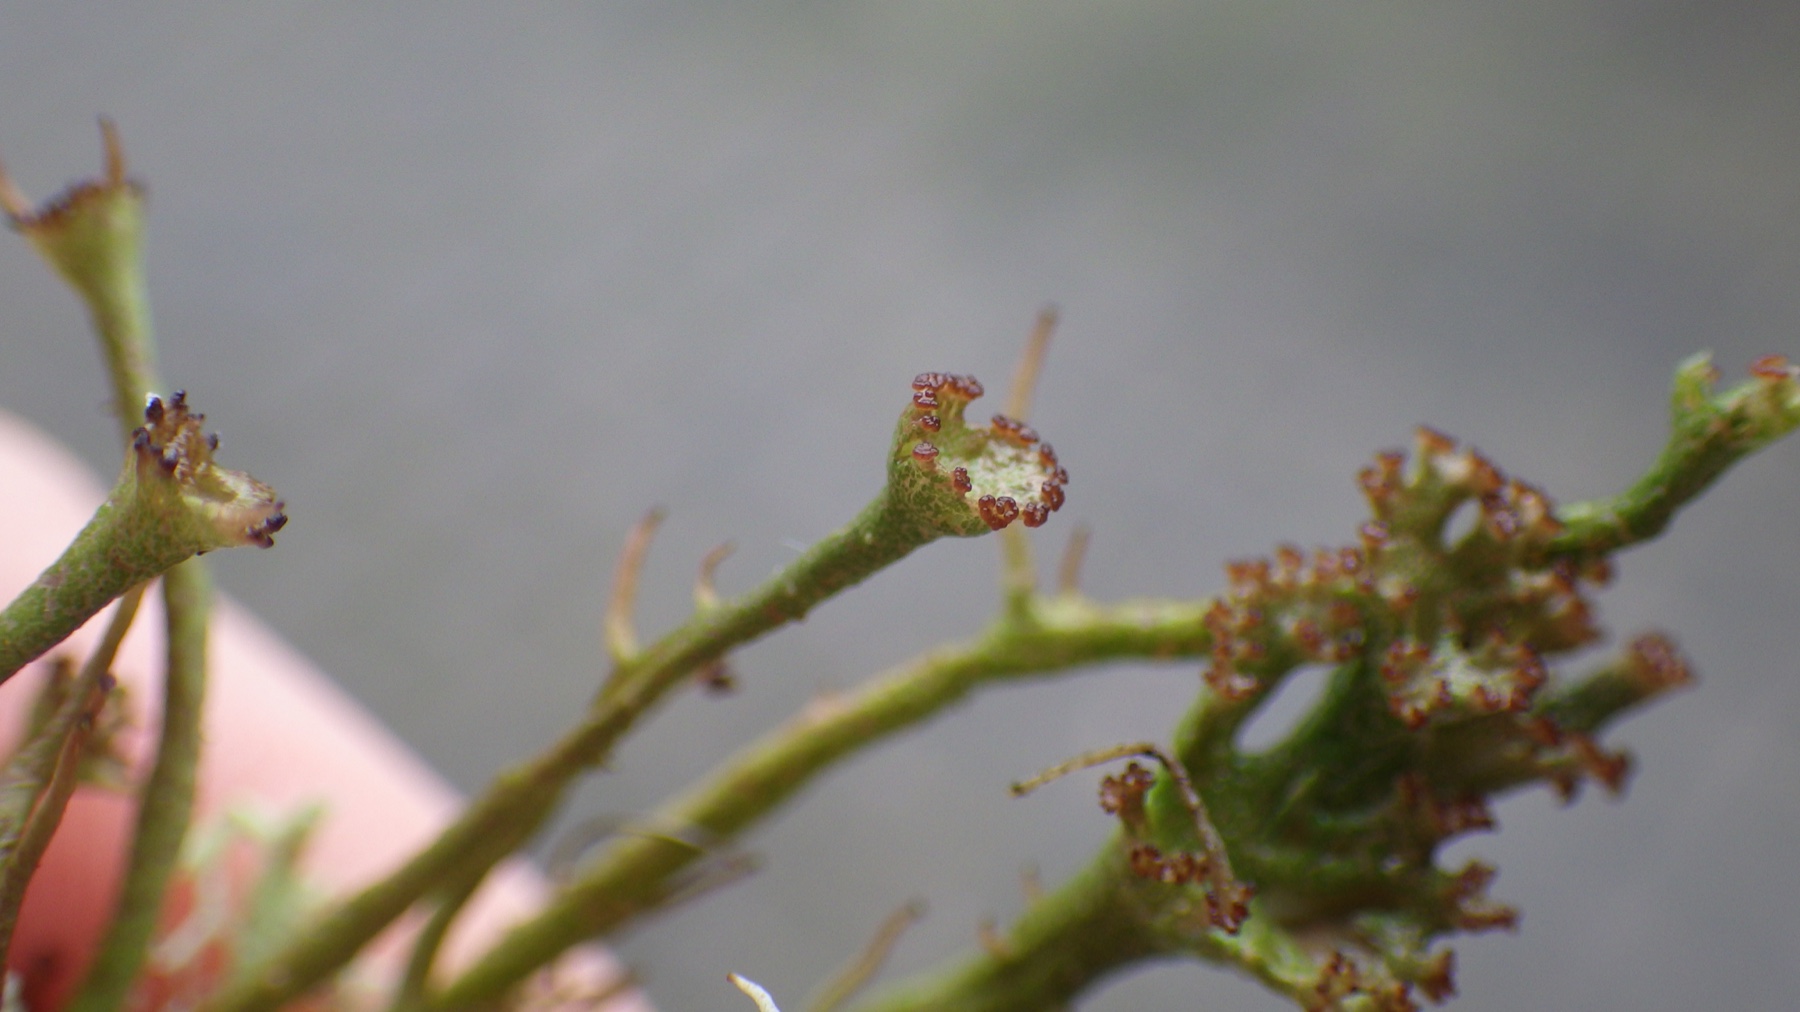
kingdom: Fungi
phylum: Ascomycota
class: Lecanoromycetes
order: Lecanorales
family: Cladoniaceae
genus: Cladonia
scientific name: Cladonia gracilis
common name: slank bægerlav
